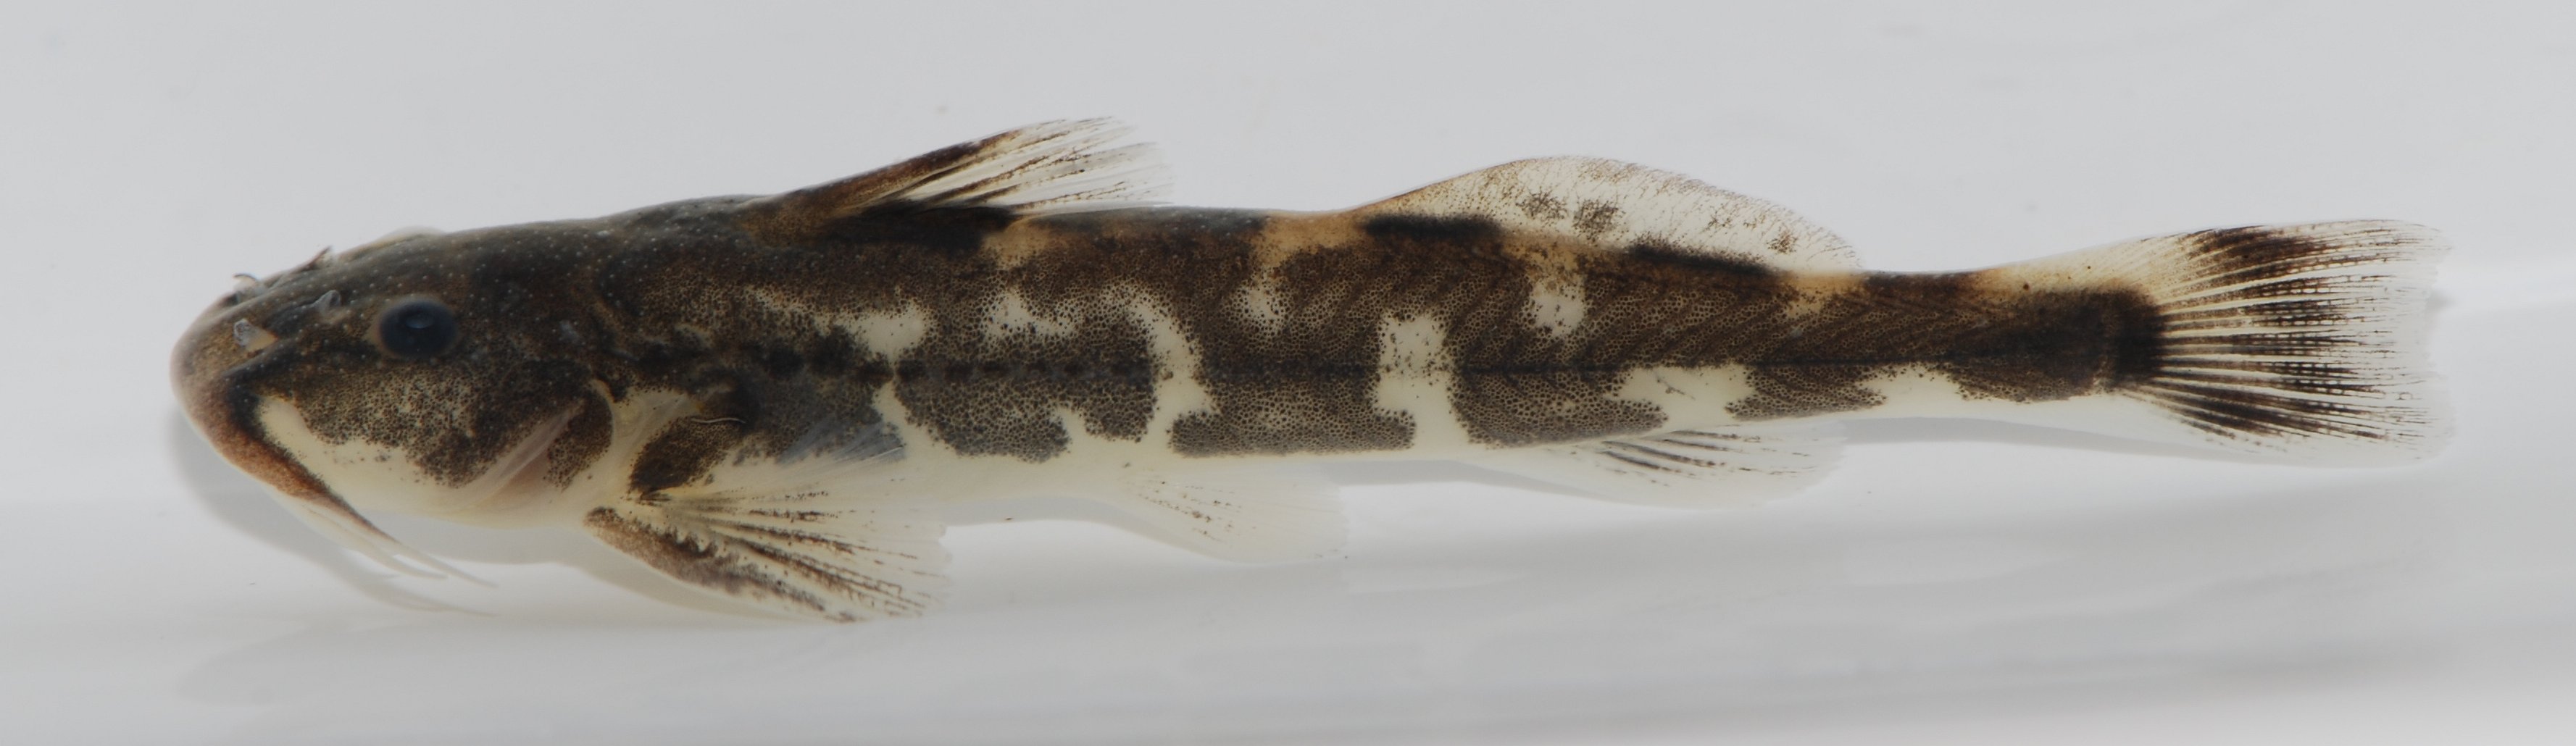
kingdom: Animalia
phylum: Chordata
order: Siluriformes
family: Amphiliidae
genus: Zaireichthys
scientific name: Zaireichthys
